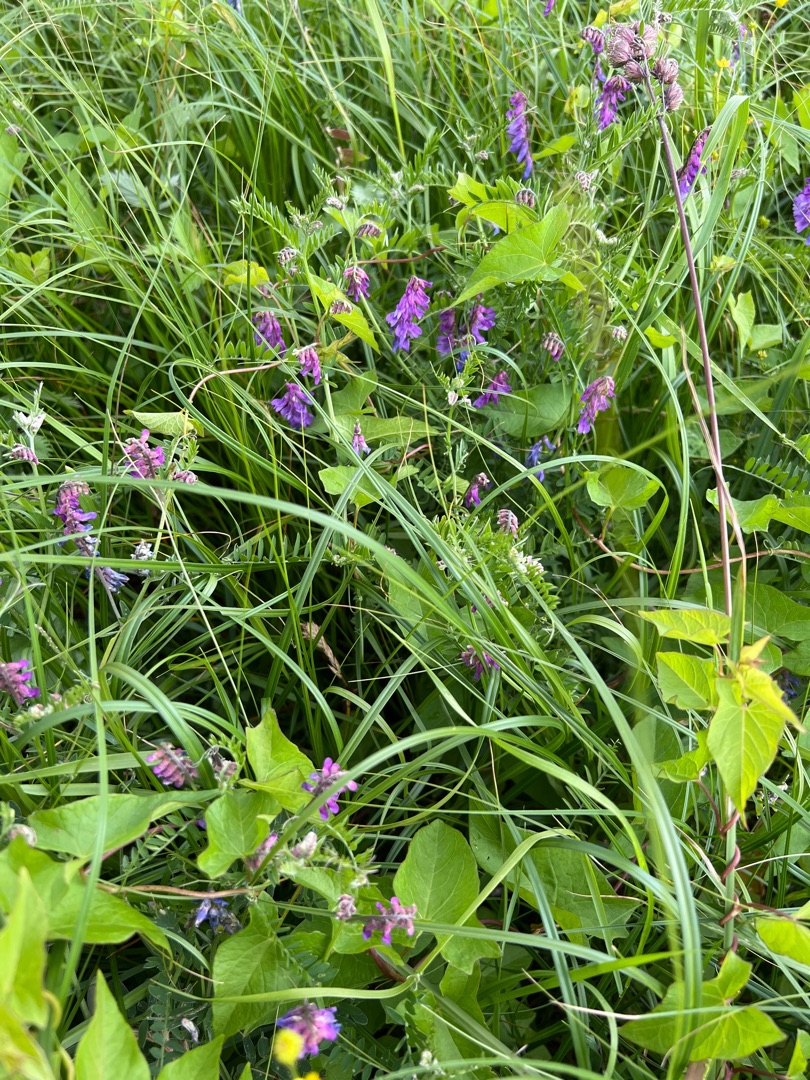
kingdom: Plantae
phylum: Tracheophyta
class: Magnoliopsida
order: Fabales
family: Fabaceae
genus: Vicia
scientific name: Vicia cracca
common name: Muse-vikke
